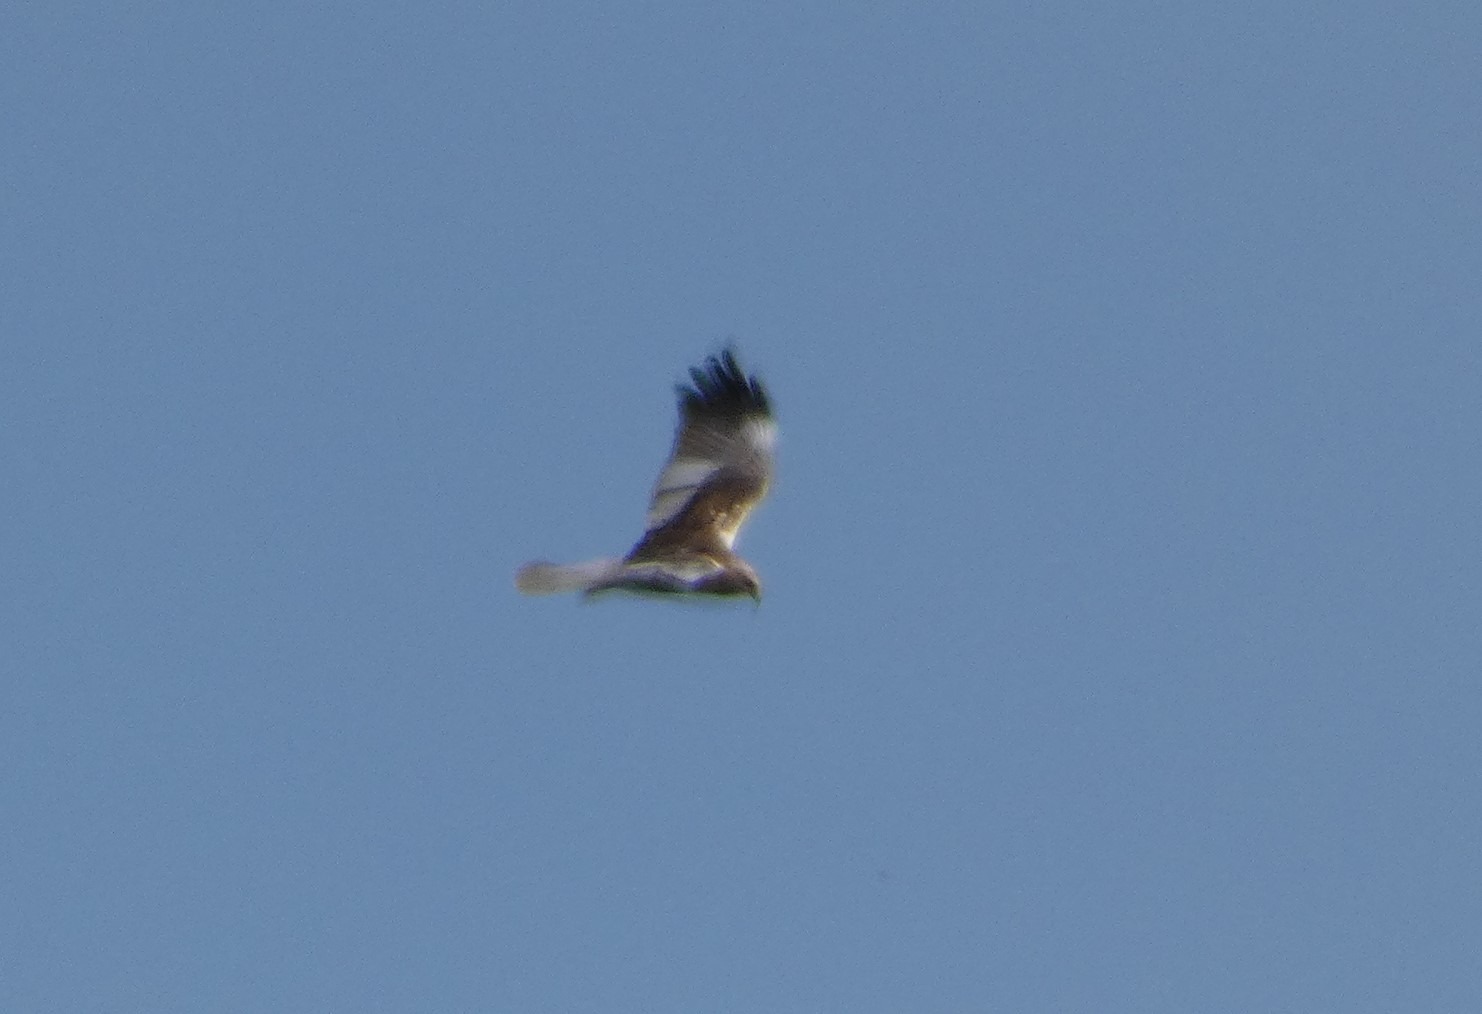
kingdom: Animalia
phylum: Chordata
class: Aves
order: Accipitriformes
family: Accipitridae
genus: Circus
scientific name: Circus aeruginosus
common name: Rørhøg
